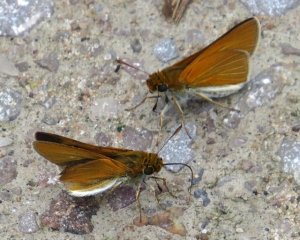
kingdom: Animalia
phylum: Arthropoda
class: Insecta
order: Lepidoptera
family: Hesperiidae
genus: Euphyes
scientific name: Euphyes bimacula
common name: Two-spotted Skipper
